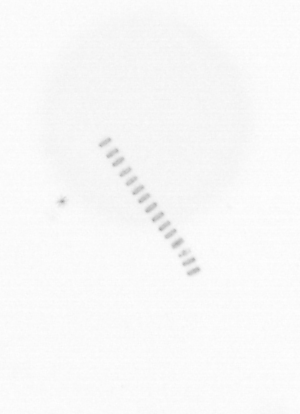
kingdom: Chromista
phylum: Ochrophyta
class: Bacillariophyceae
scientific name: Bacillariophyceae
